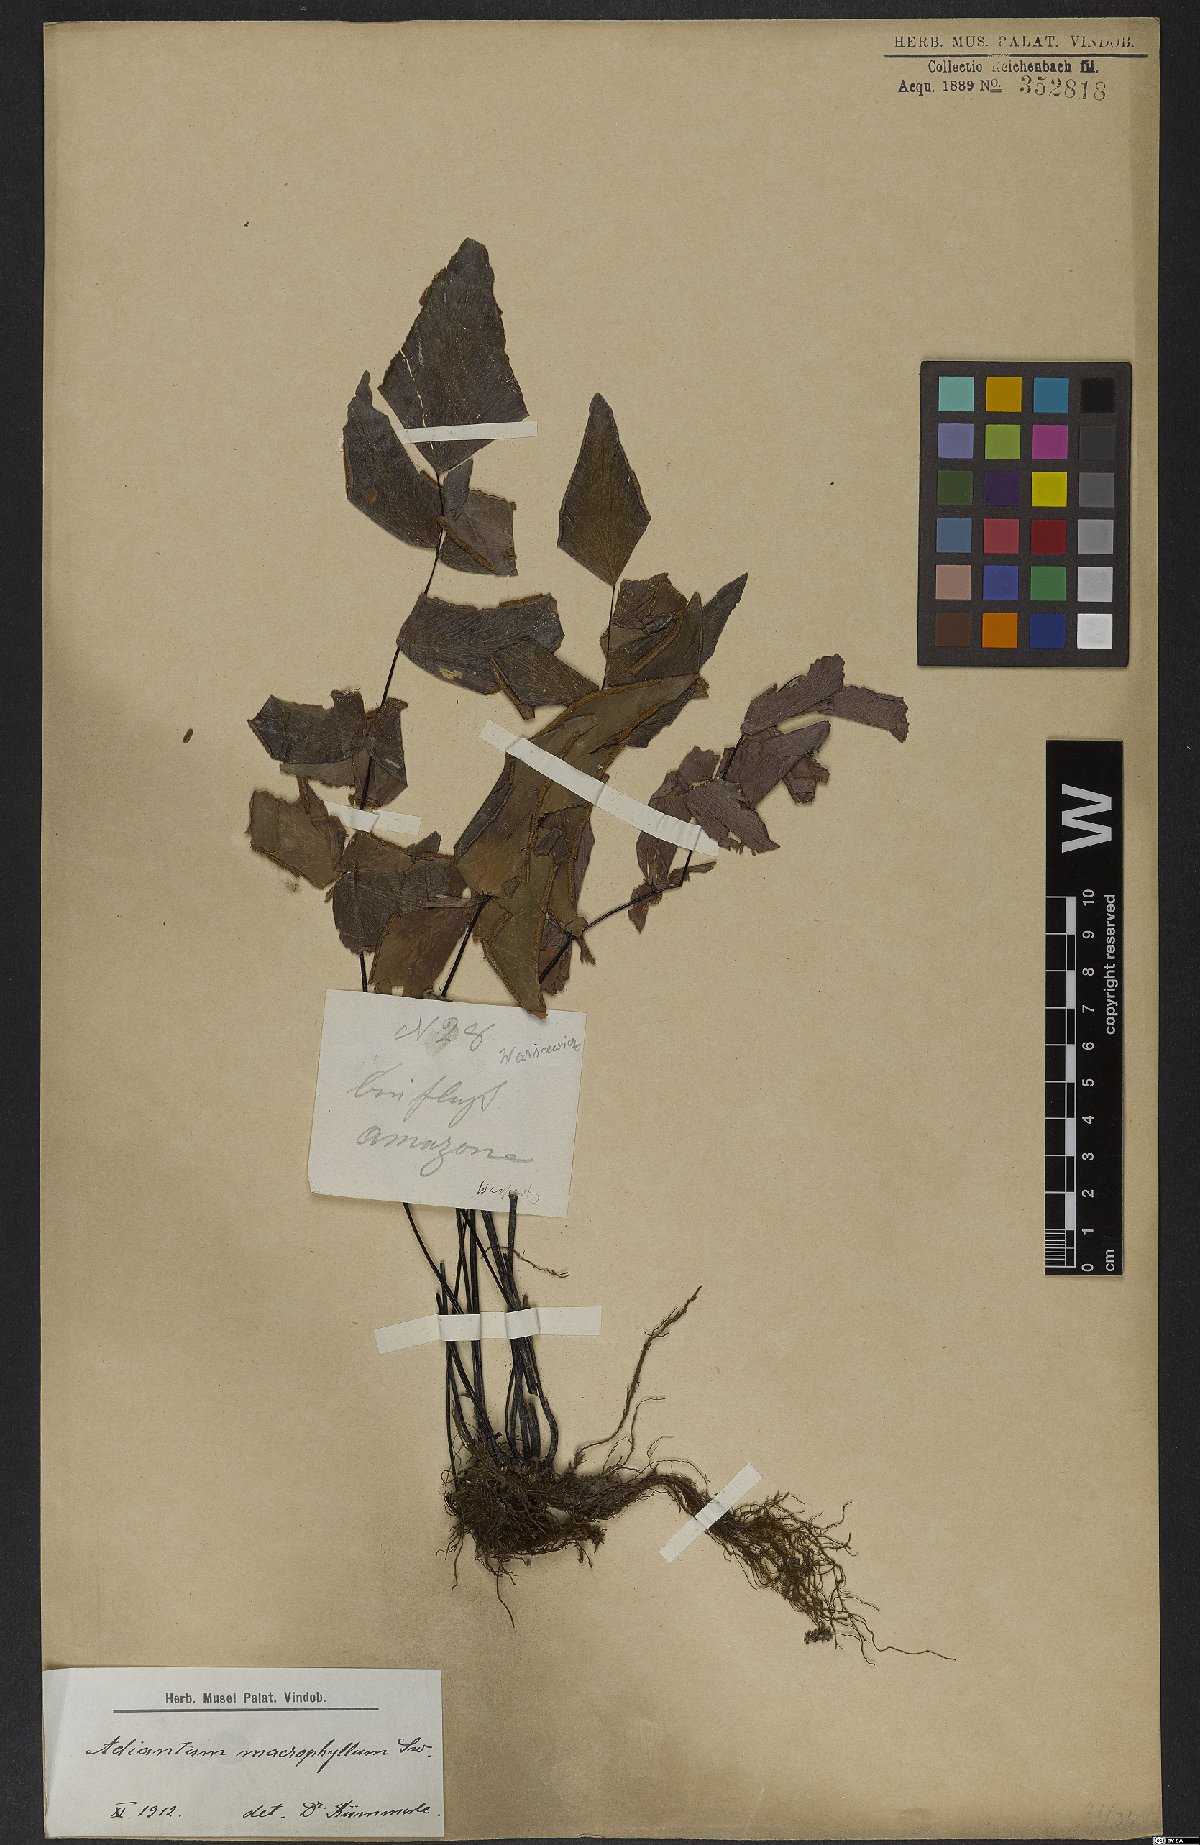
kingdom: Plantae
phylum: Tracheophyta
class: Polypodiopsida
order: Polypodiales
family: Pteridaceae
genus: Adiantum
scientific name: Adiantum macrophyllum
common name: Largeleaf maidenhair
